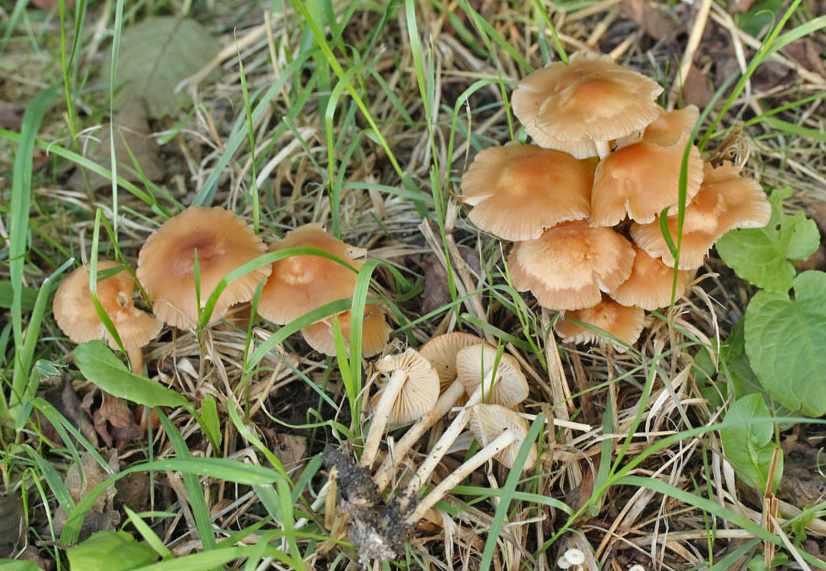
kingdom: Fungi
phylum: Basidiomycota
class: Agaricomycetes
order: Agaricales
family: Marasmiaceae
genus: Marasmius
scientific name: Marasmius oreades
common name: elledans-bruskhat
